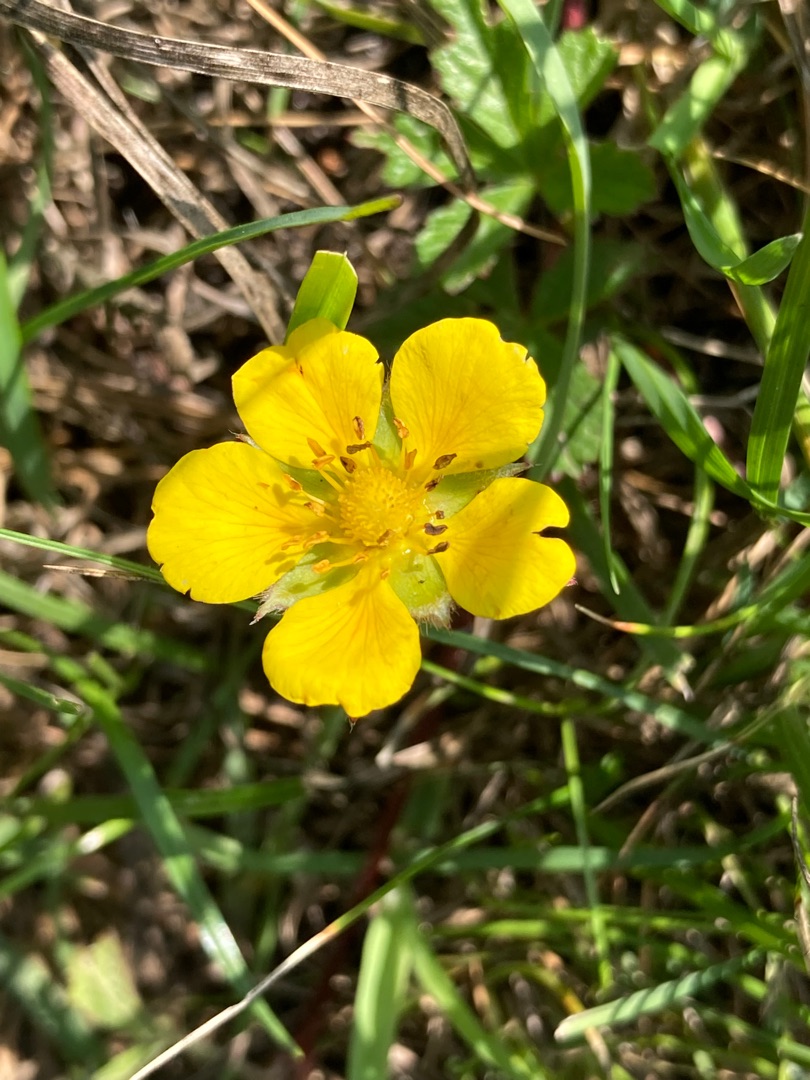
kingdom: Plantae
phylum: Tracheophyta
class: Magnoliopsida
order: Rosales
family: Rosaceae
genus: Potentilla
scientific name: Potentilla reptans
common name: Krybende potentil
